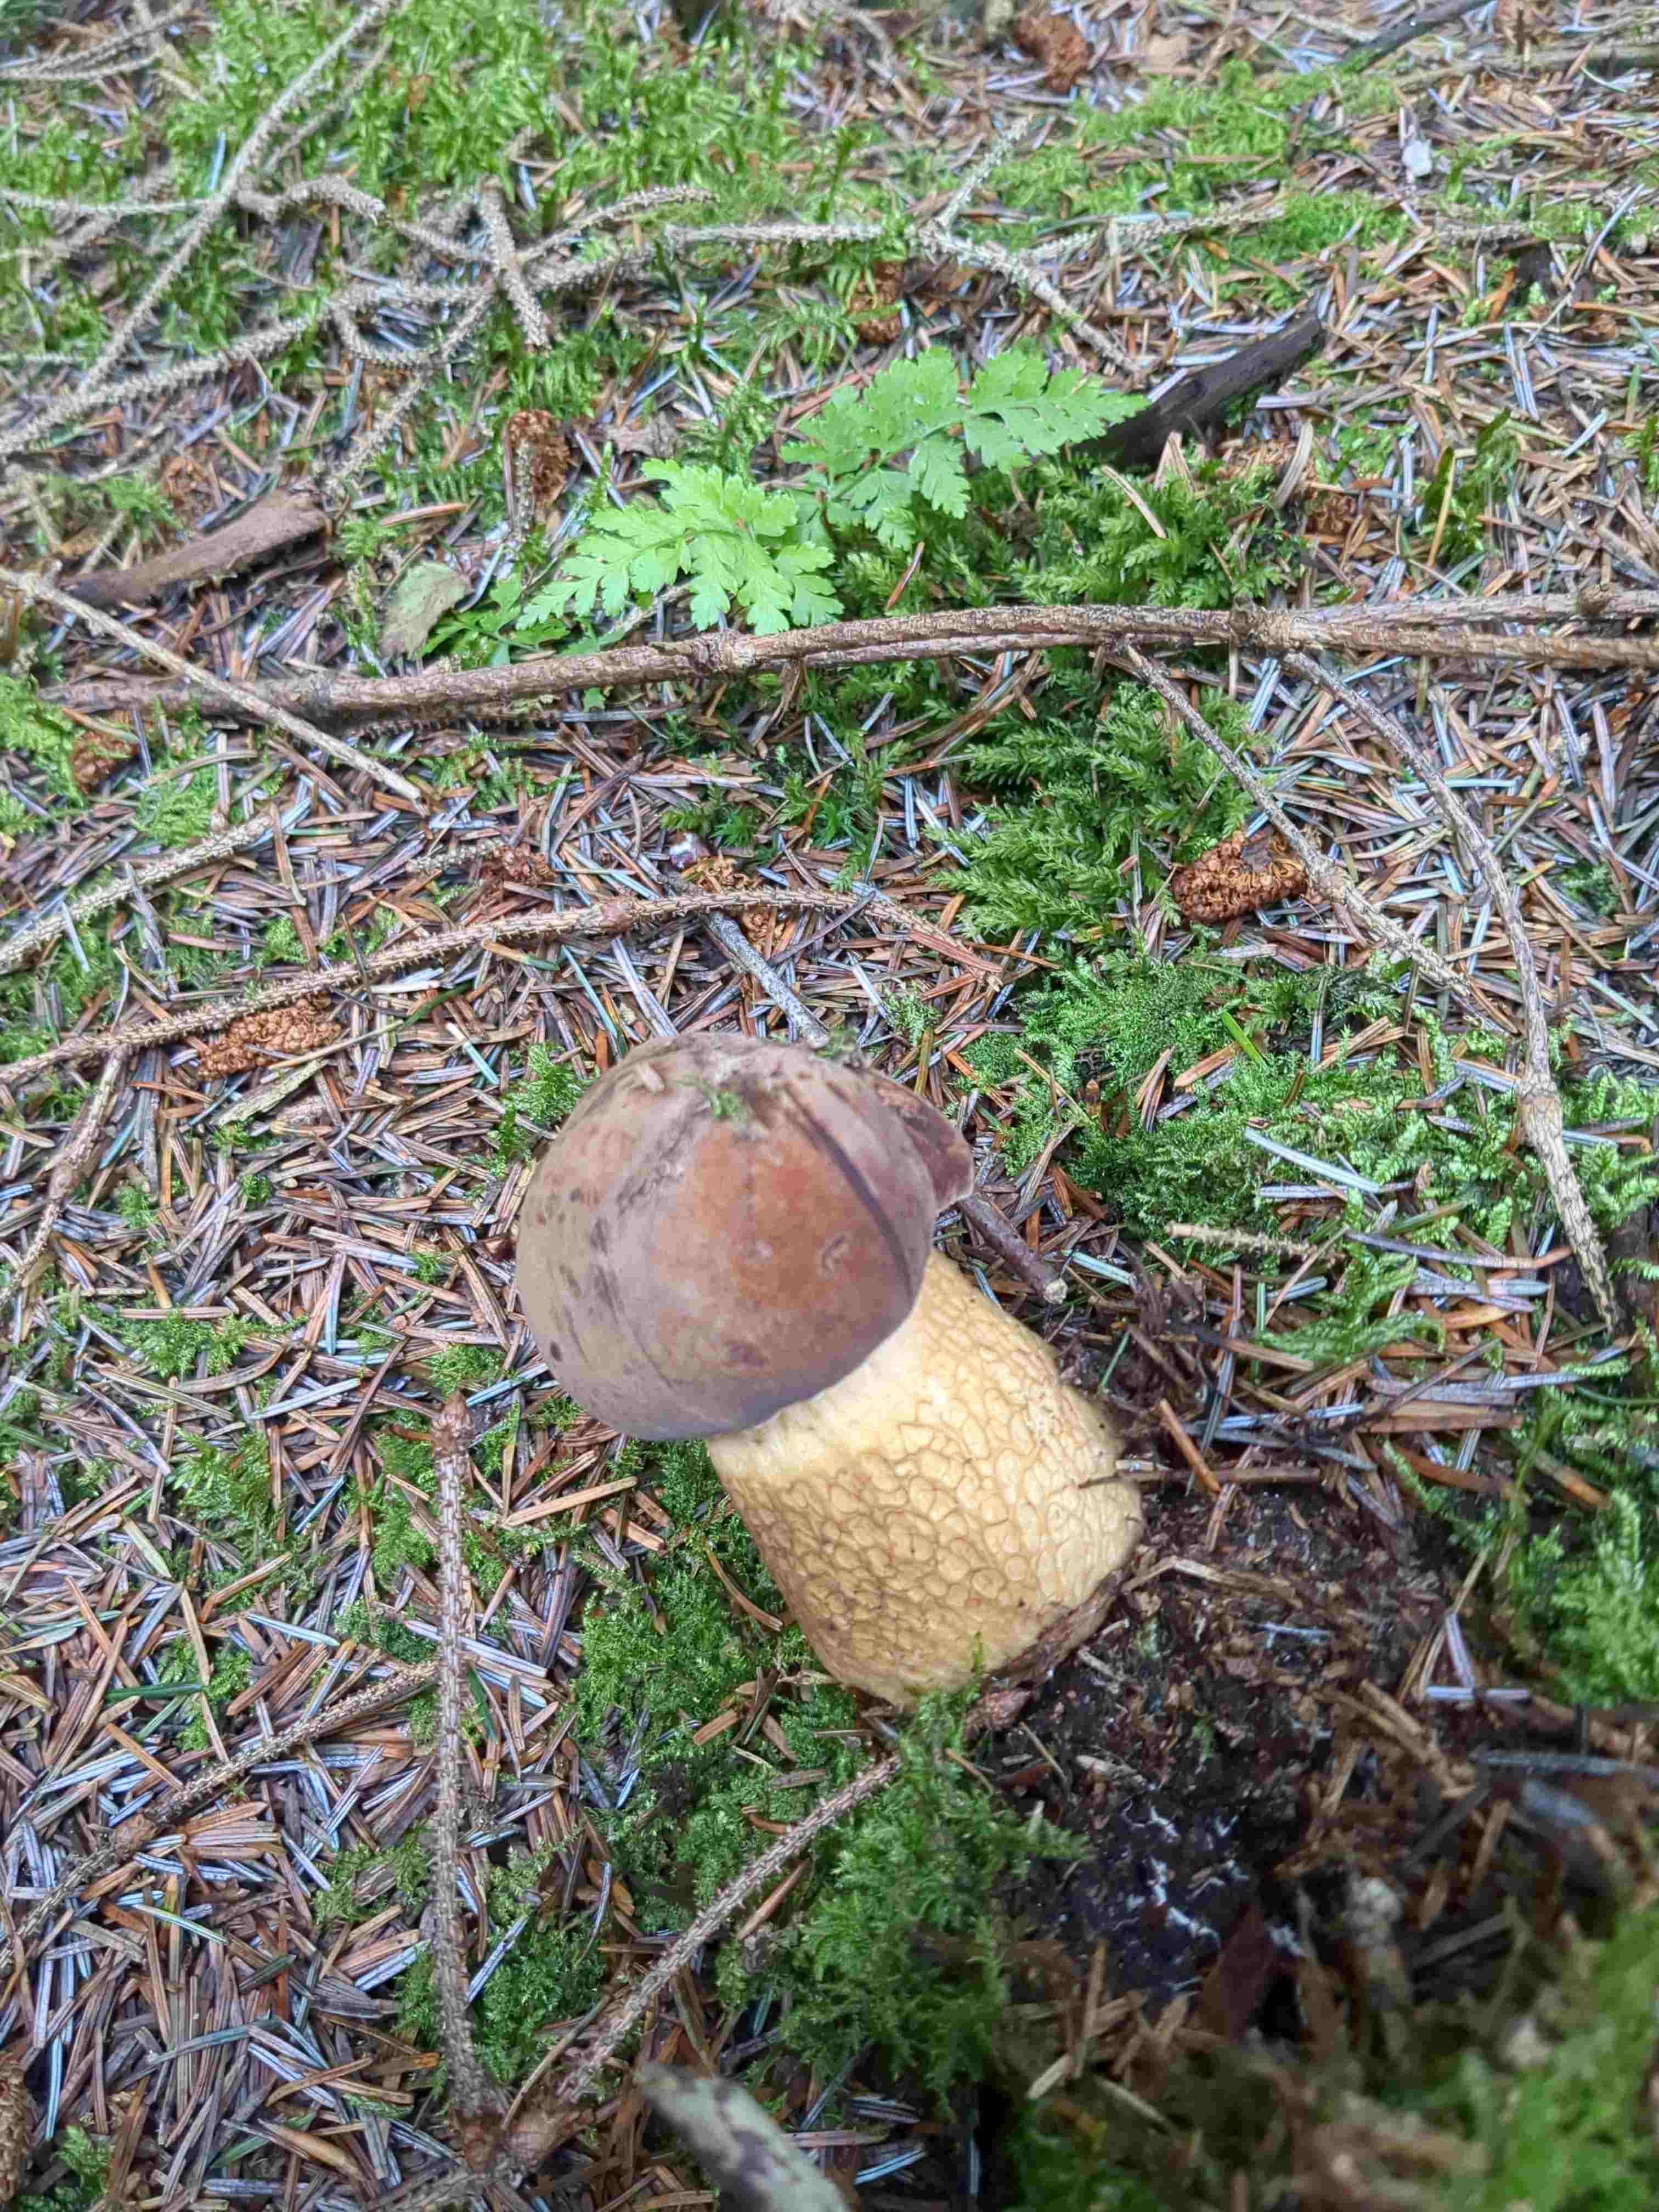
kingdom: Fungi
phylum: Basidiomycota
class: Agaricomycetes
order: Boletales
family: Boletaceae
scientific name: Boletaceae
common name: rørhatfamilien
